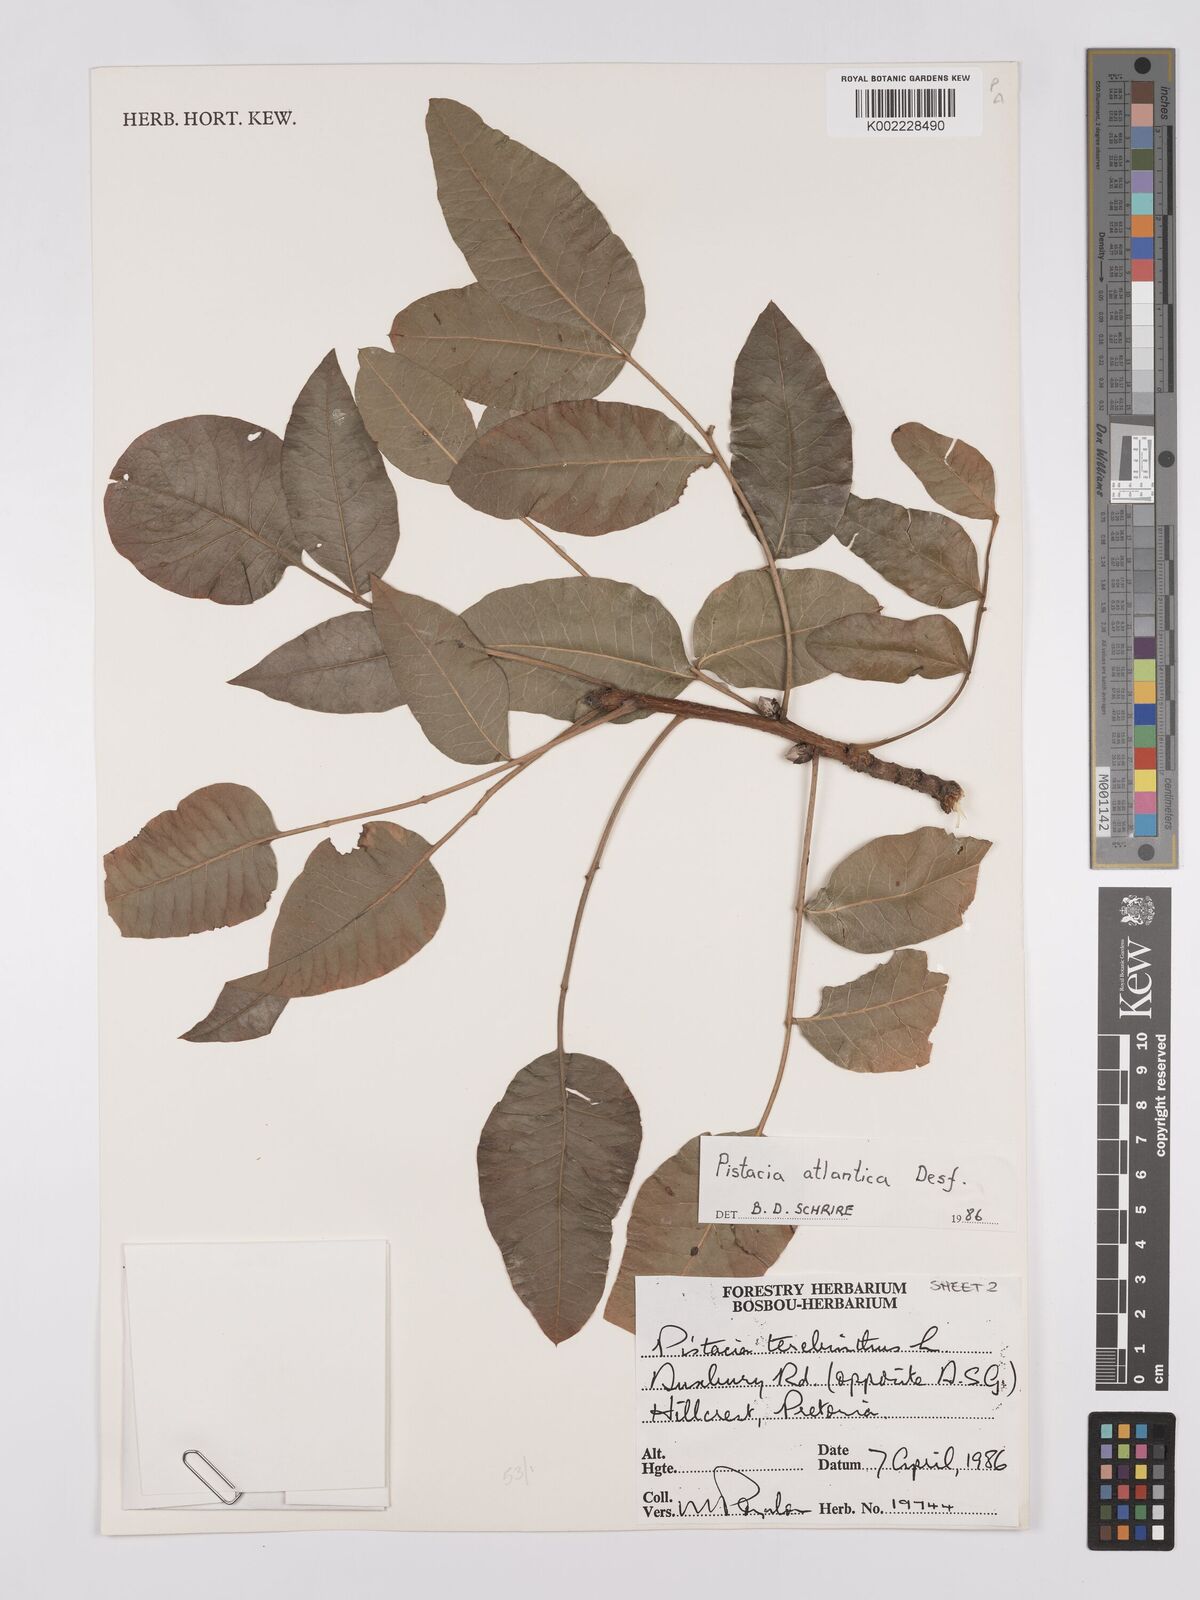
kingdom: Plantae
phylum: Tracheophyta
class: Magnoliopsida
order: Sapindales
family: Anacardiaceae
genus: Pistacia
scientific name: Pistacia atlantica
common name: Mt. atlas mastic tree
